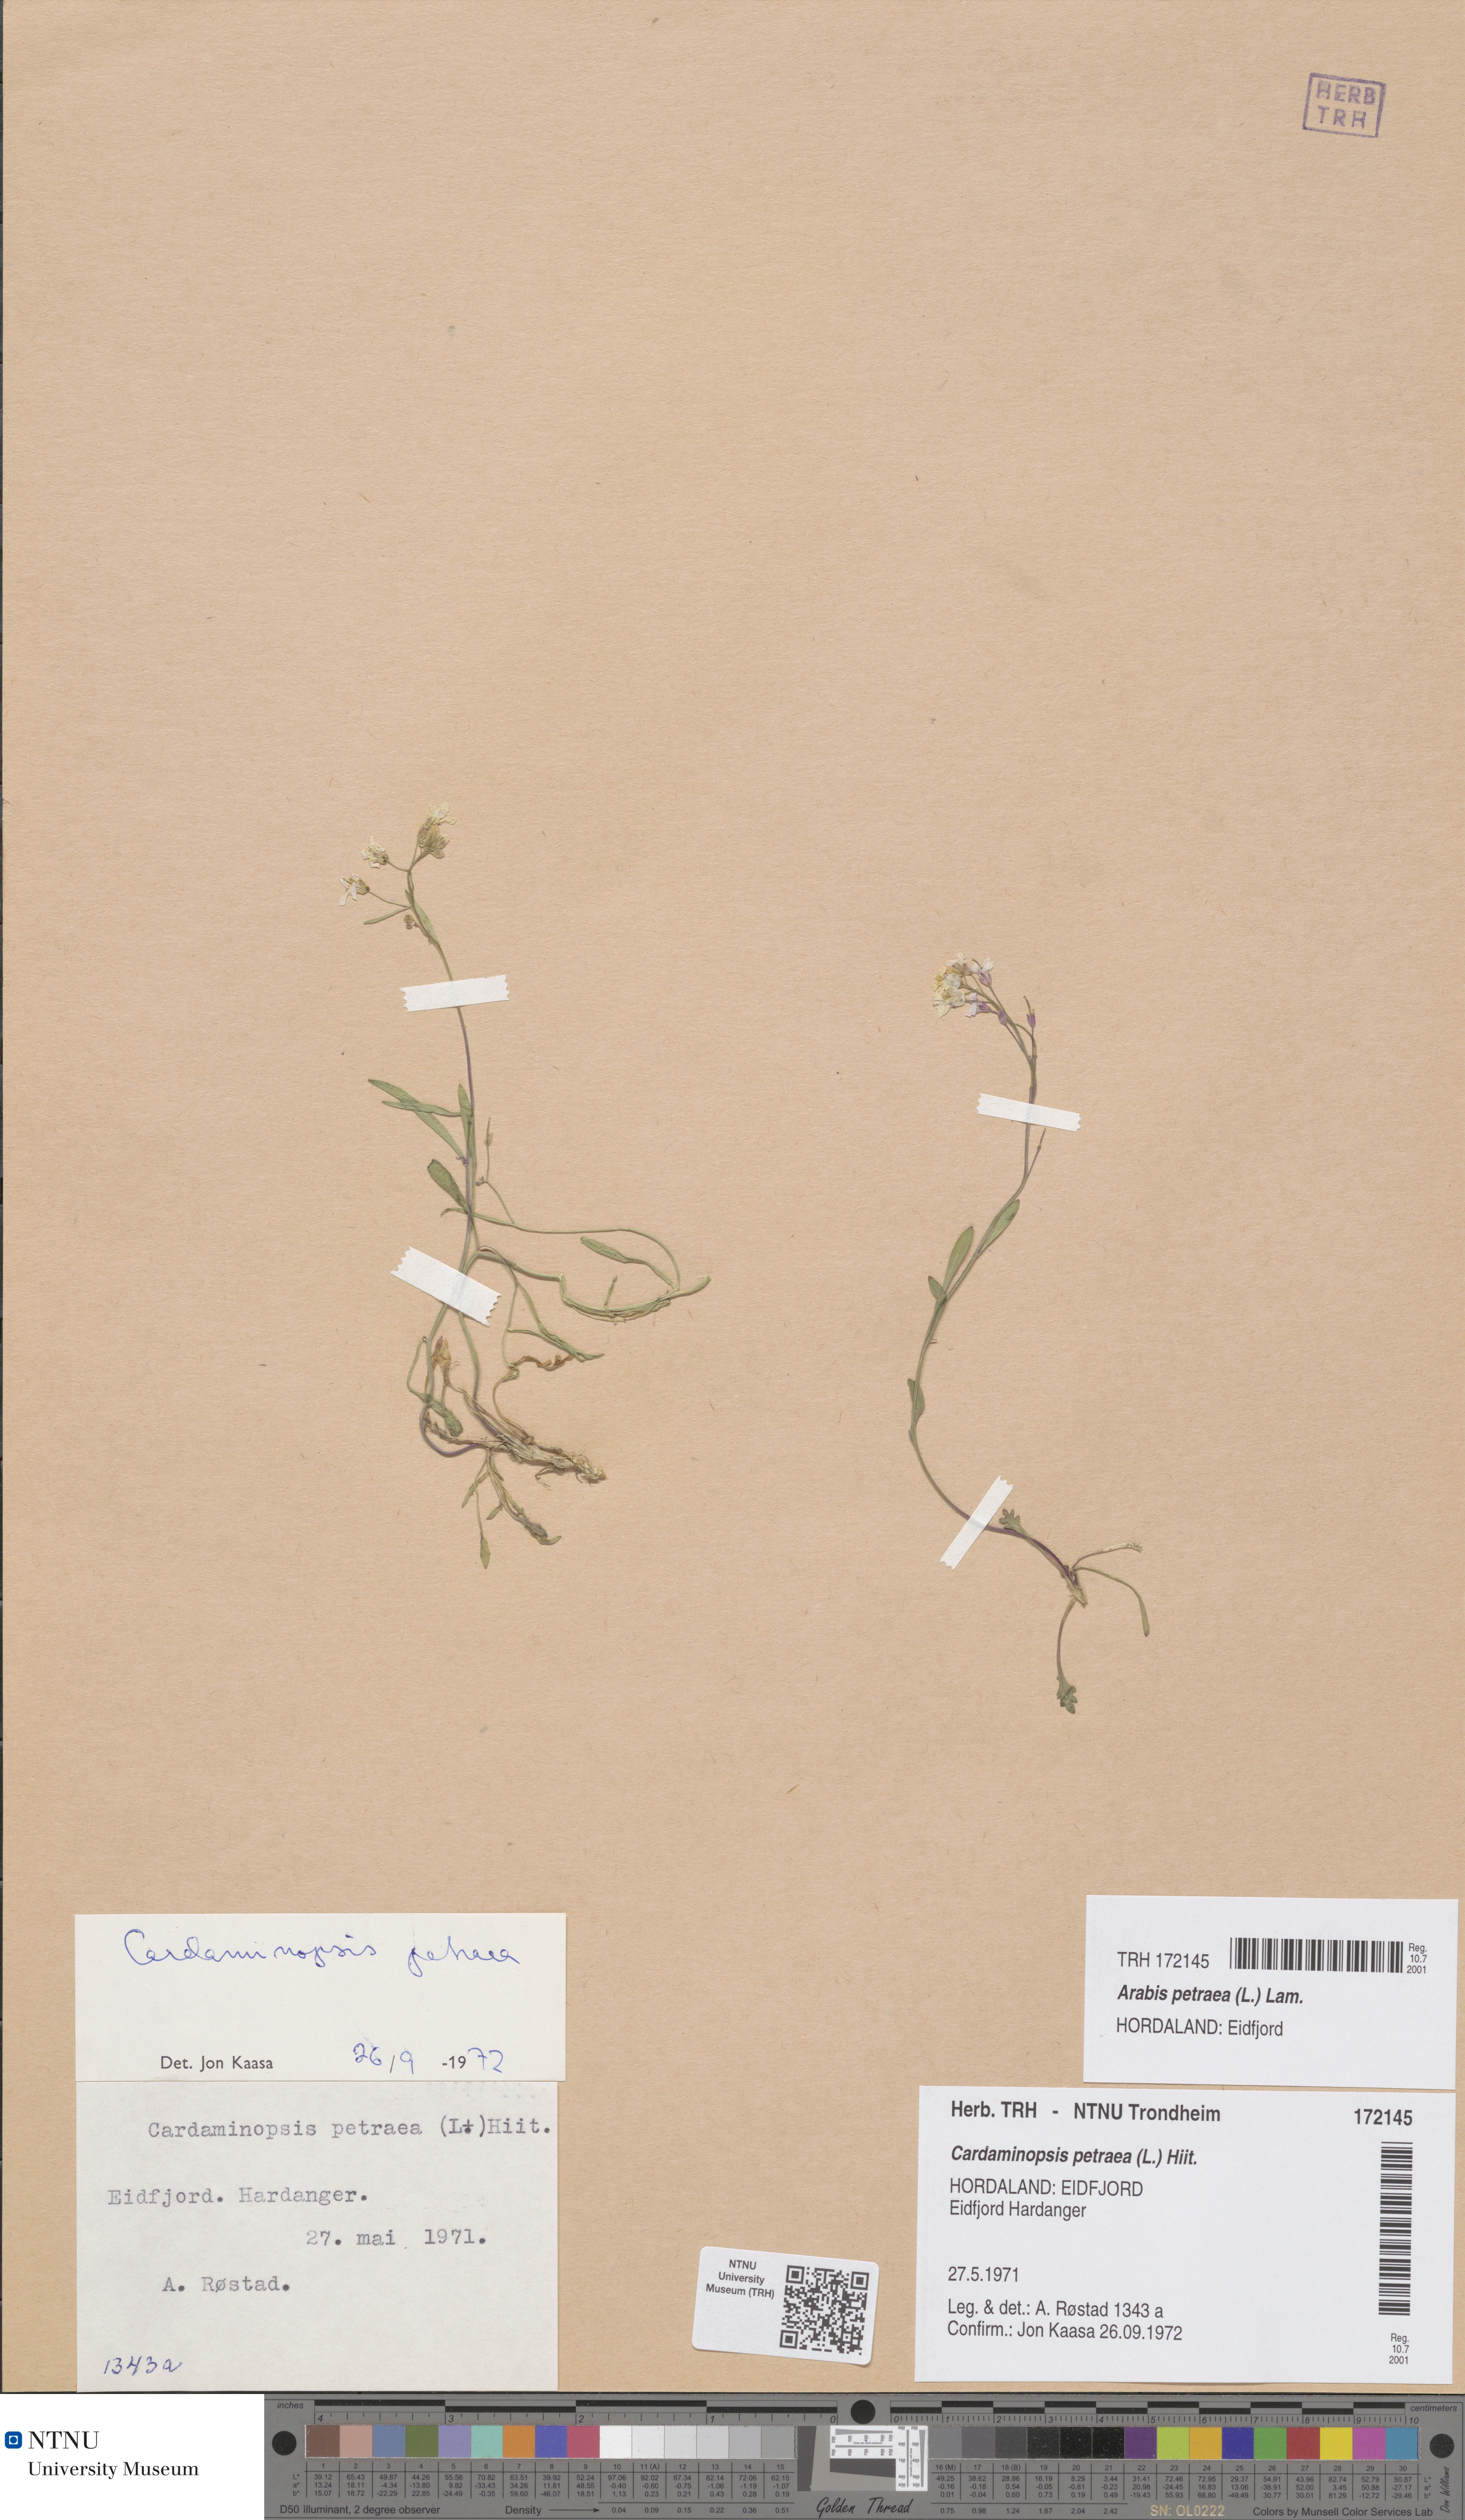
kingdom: Plantae
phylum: Tracheophyta
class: Magnoliopsida
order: Brassicales
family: Brassicaceae
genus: Arabidopsis
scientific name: Arabidopsis petraea
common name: Northern rock-cress
